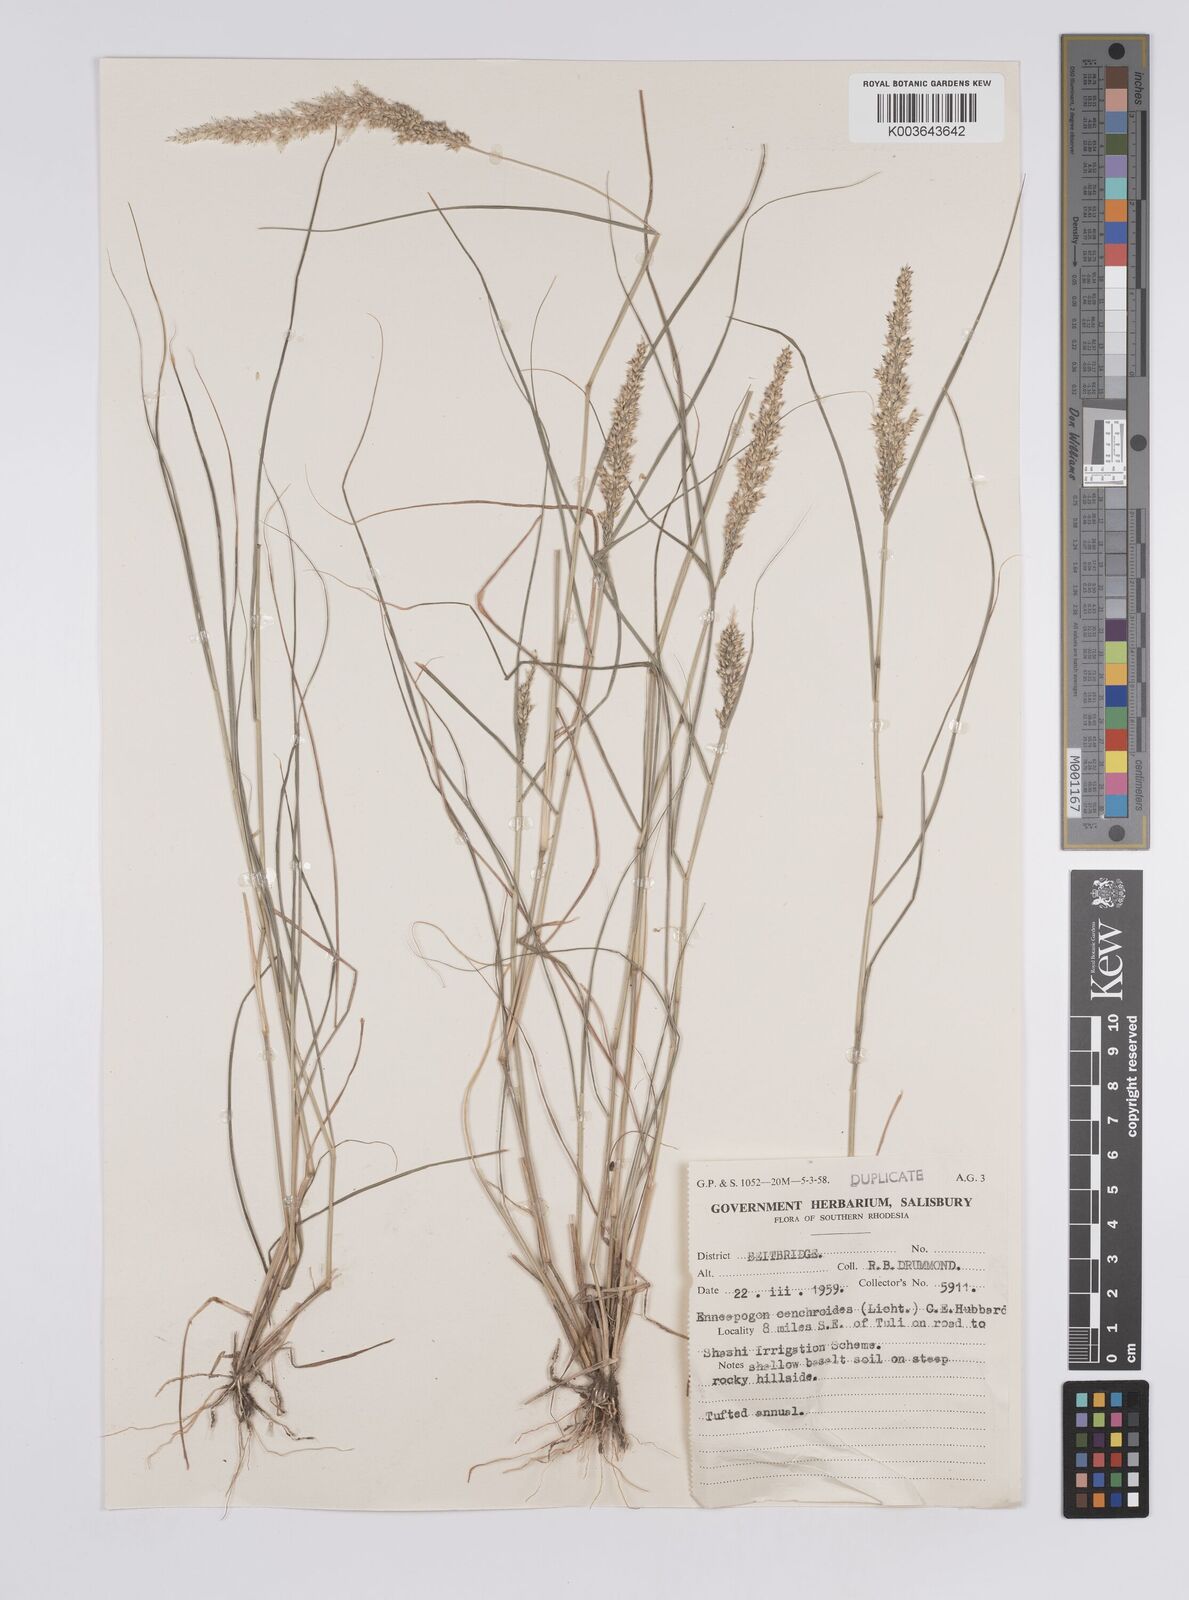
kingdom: Plantae
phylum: Tracheophyta
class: Liliopsida
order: Poales
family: Poaceae
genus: Enneapogon
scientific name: Enneapogon cenchroides
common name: Soft feather pappusgrass
